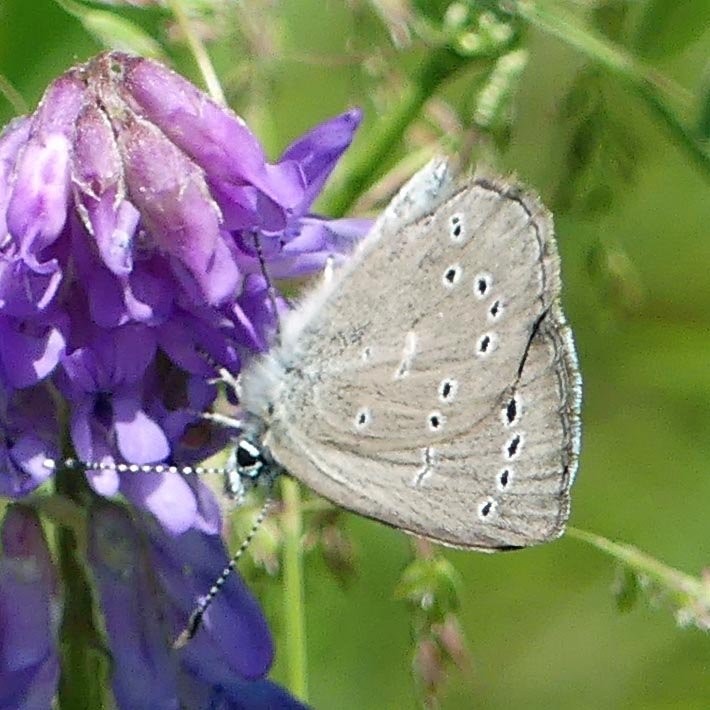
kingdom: Animalia
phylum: Arthropoda
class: Insecta
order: Lepidoptera
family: Lycaenidae
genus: Glaucopsyche
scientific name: Glaucopsyche lygdamus
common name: Silvery Blue
